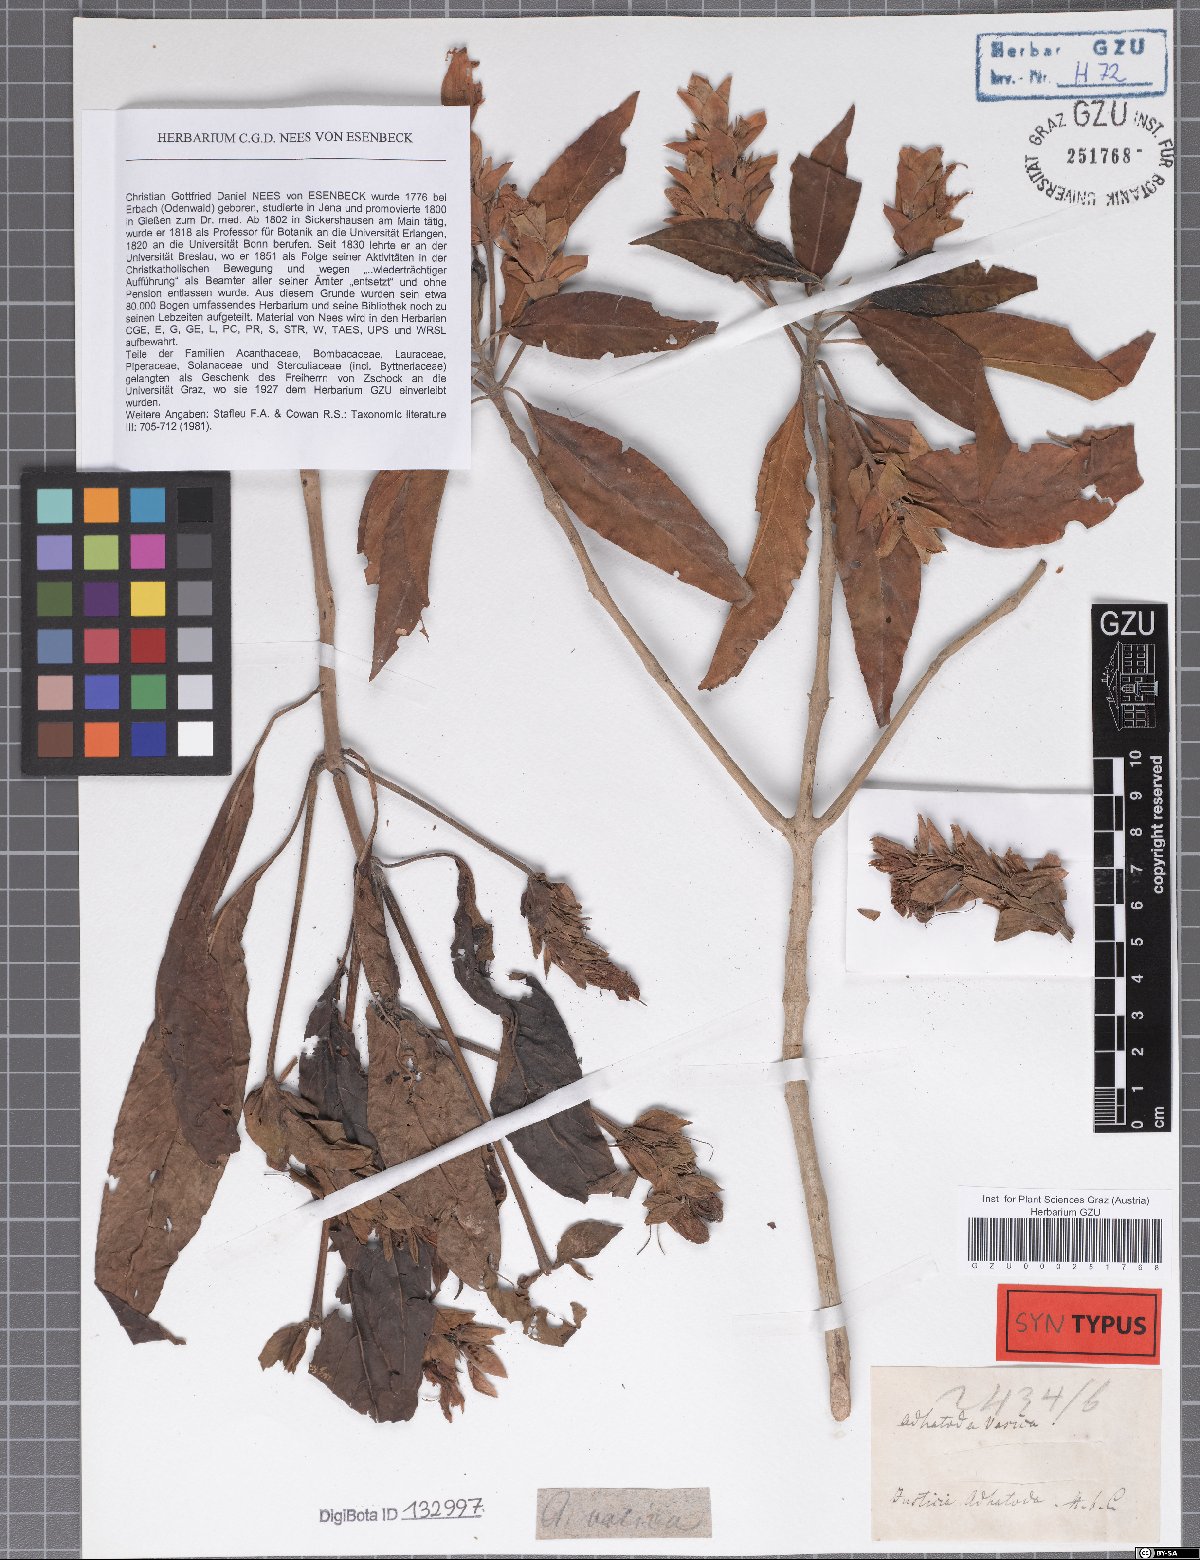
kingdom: Plantae
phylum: Tracheophyta
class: Magnoliopsida
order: Lamiales
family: Acanthaceae
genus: Justicia
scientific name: Justicia adhatoda
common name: Malabar nut
